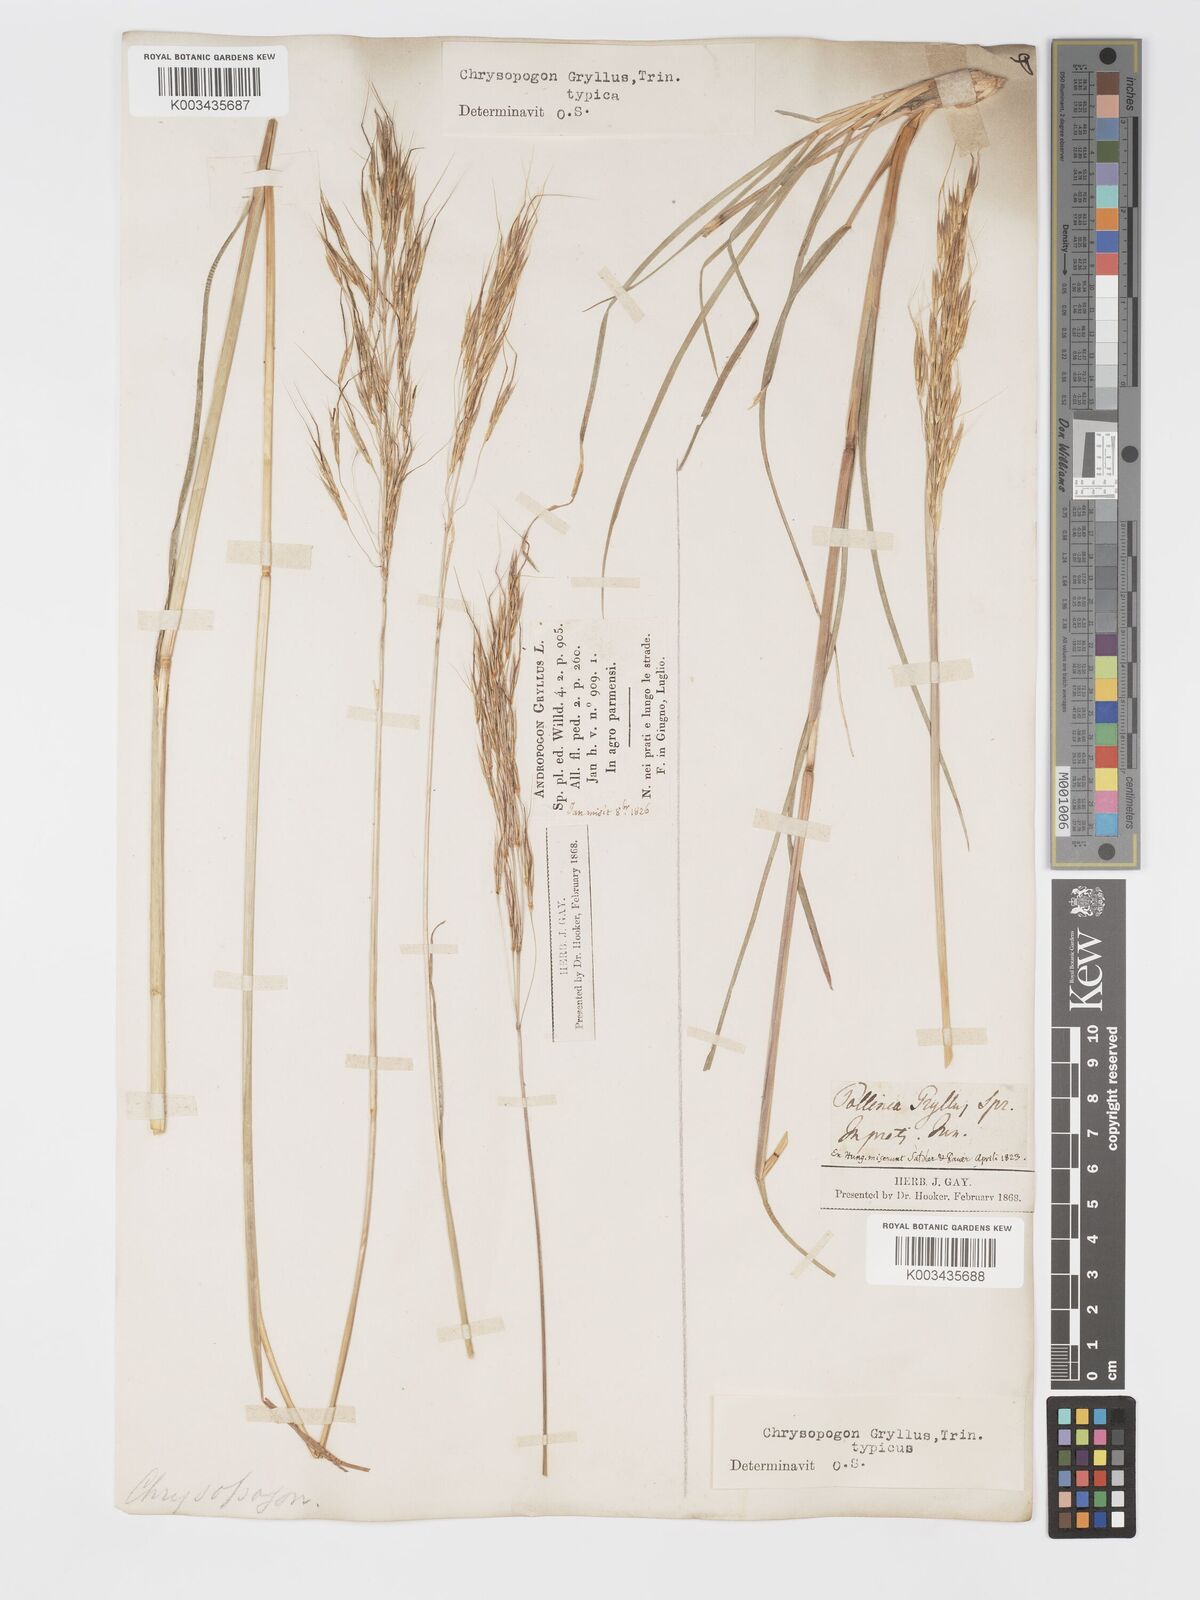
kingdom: Plantae
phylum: Tracheophyta
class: Liliopsida
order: Poales
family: Poaceae
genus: Chrysopogon
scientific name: Chrysopogon gryllus
